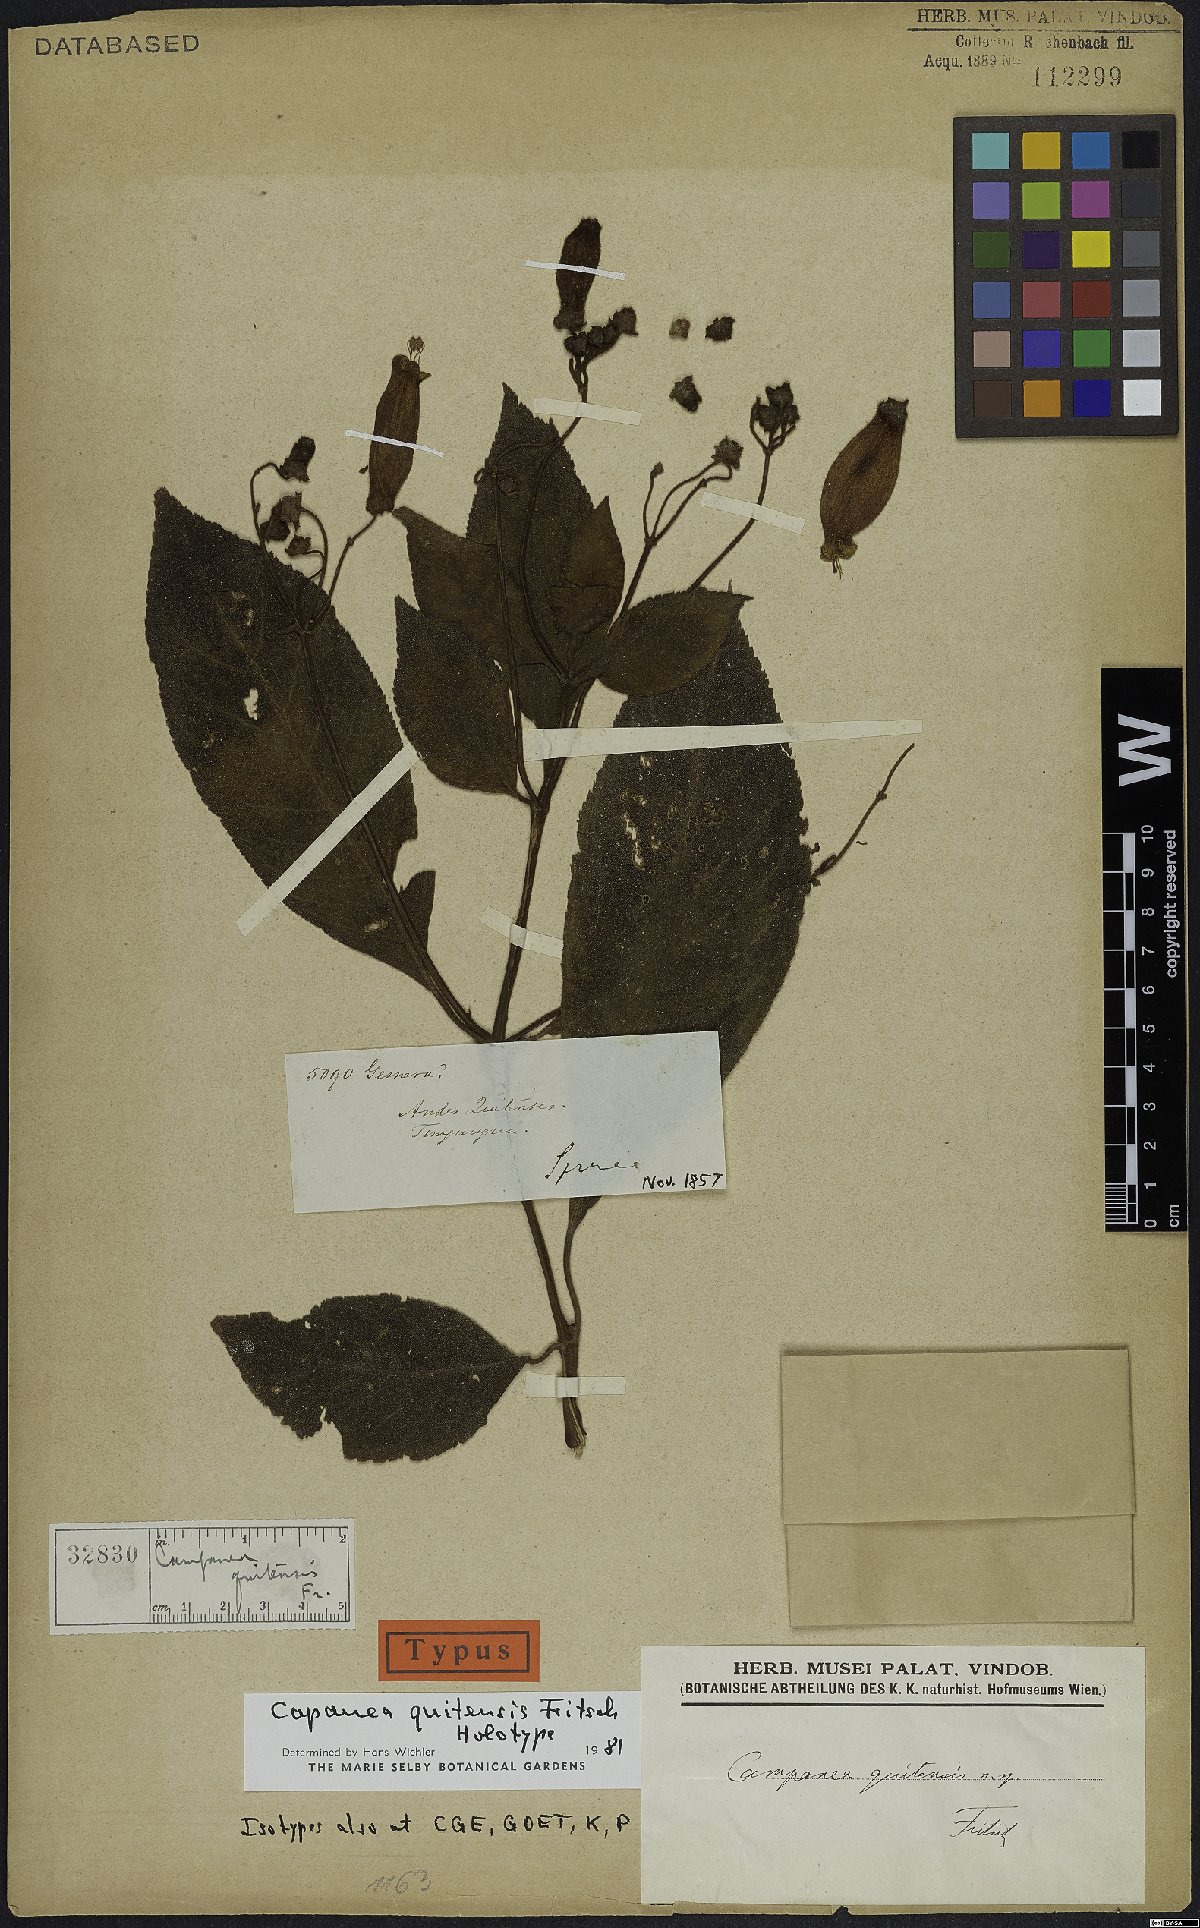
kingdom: Plantae
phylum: Tracheophyta
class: Magnoliopsida
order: Lamiales
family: Gesneriaceae
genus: Kohleria
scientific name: Kohleria affinis
